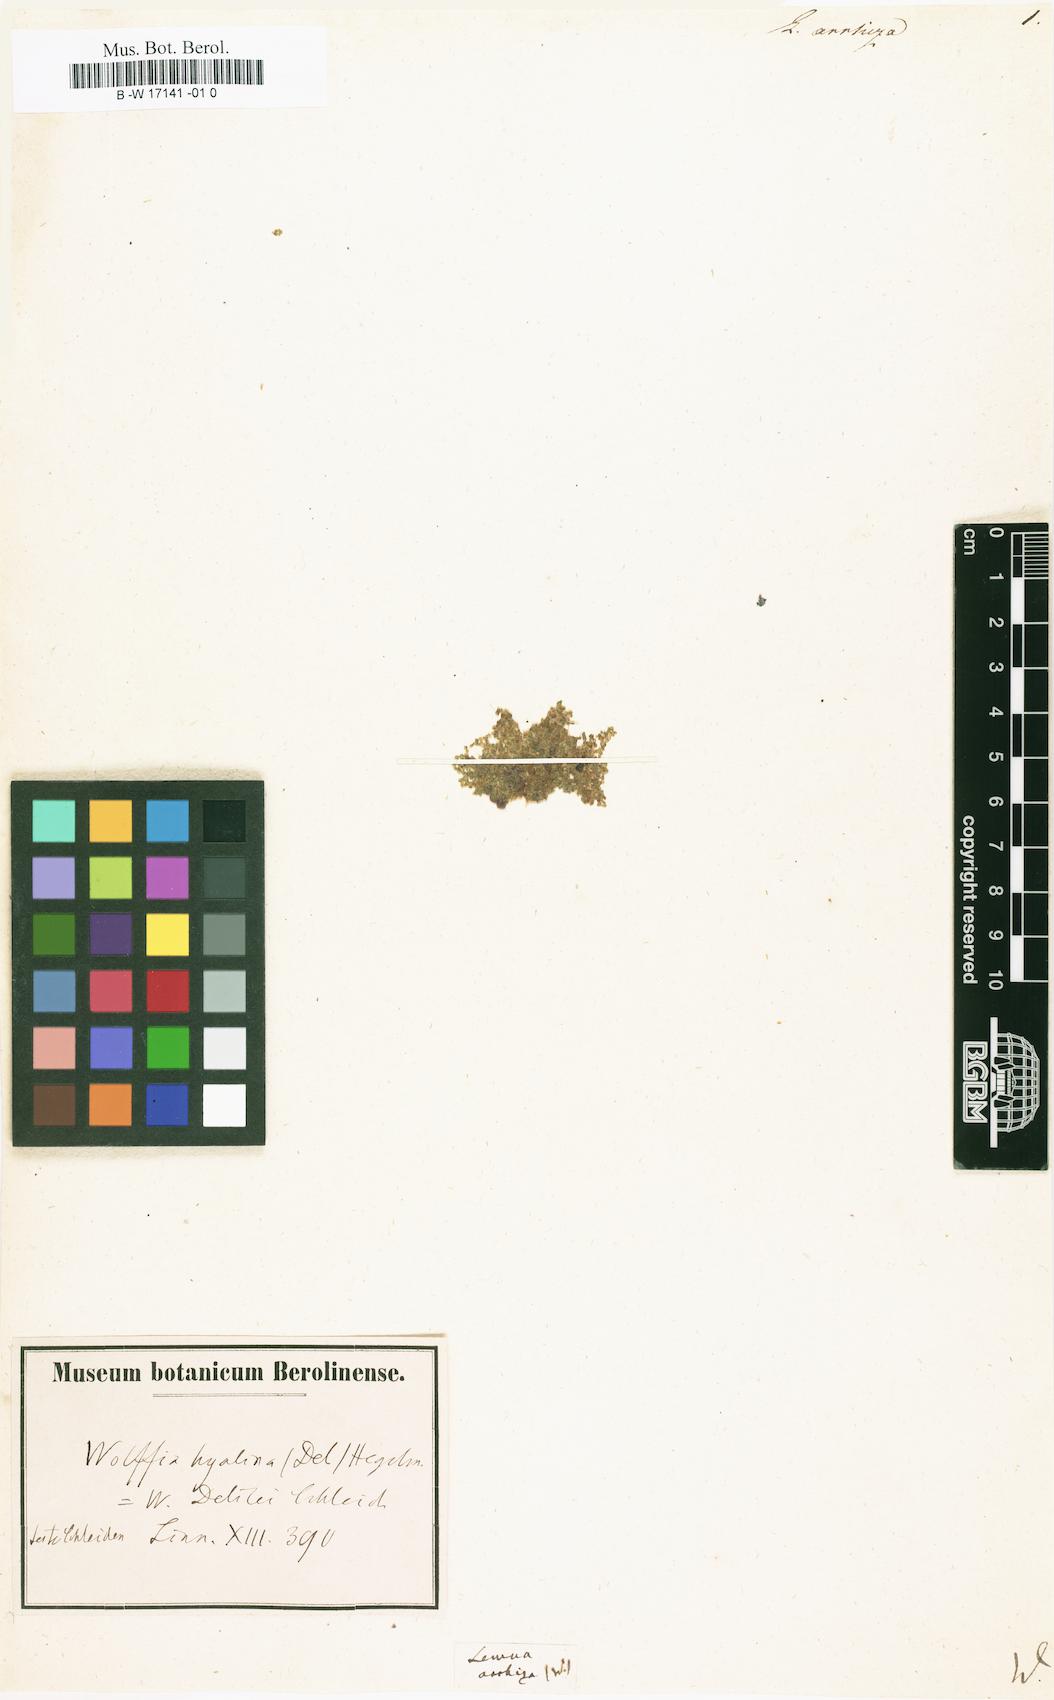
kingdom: Plantae
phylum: Tracheophyta
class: Liliopsida
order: Alismatales
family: Araceae
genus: Wolffia
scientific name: Wolffia arrhiza
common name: Rootless duckweed
